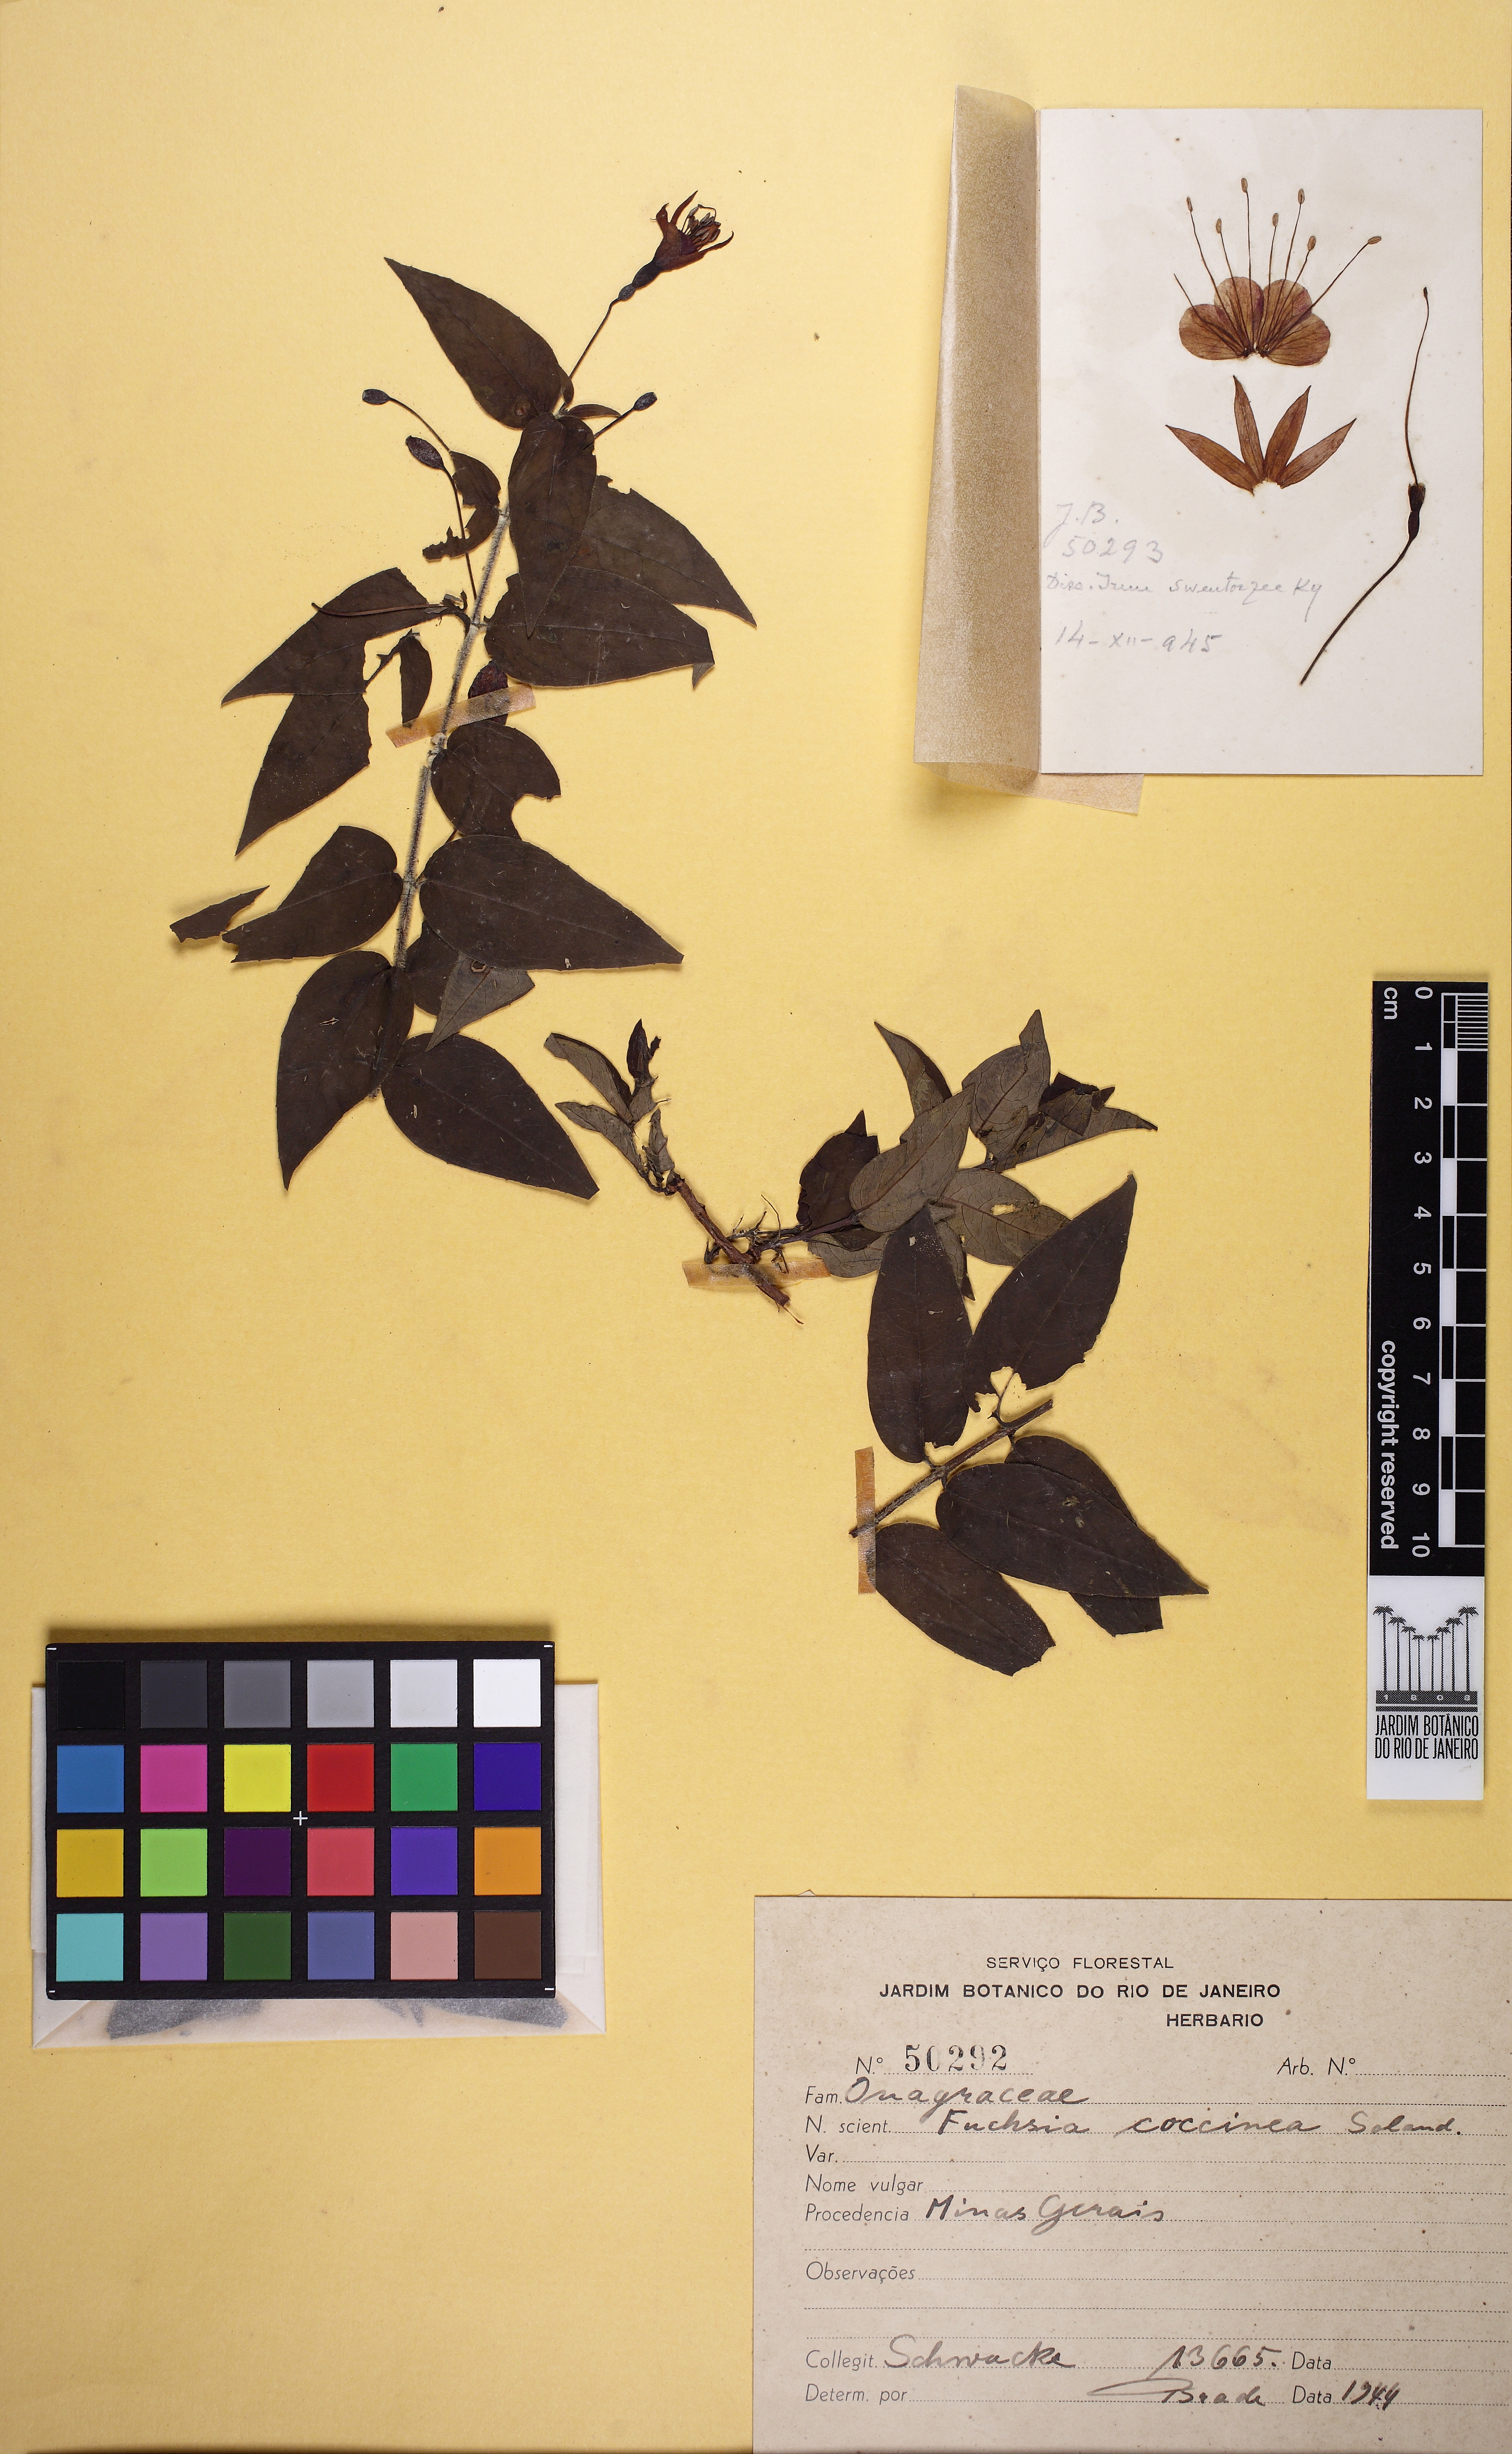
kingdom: Plantae
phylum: Tracheophyta
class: Magnoliopsida
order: Myrtales
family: Onagraceae
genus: Fuchsia
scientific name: Fuchsia coccinea
